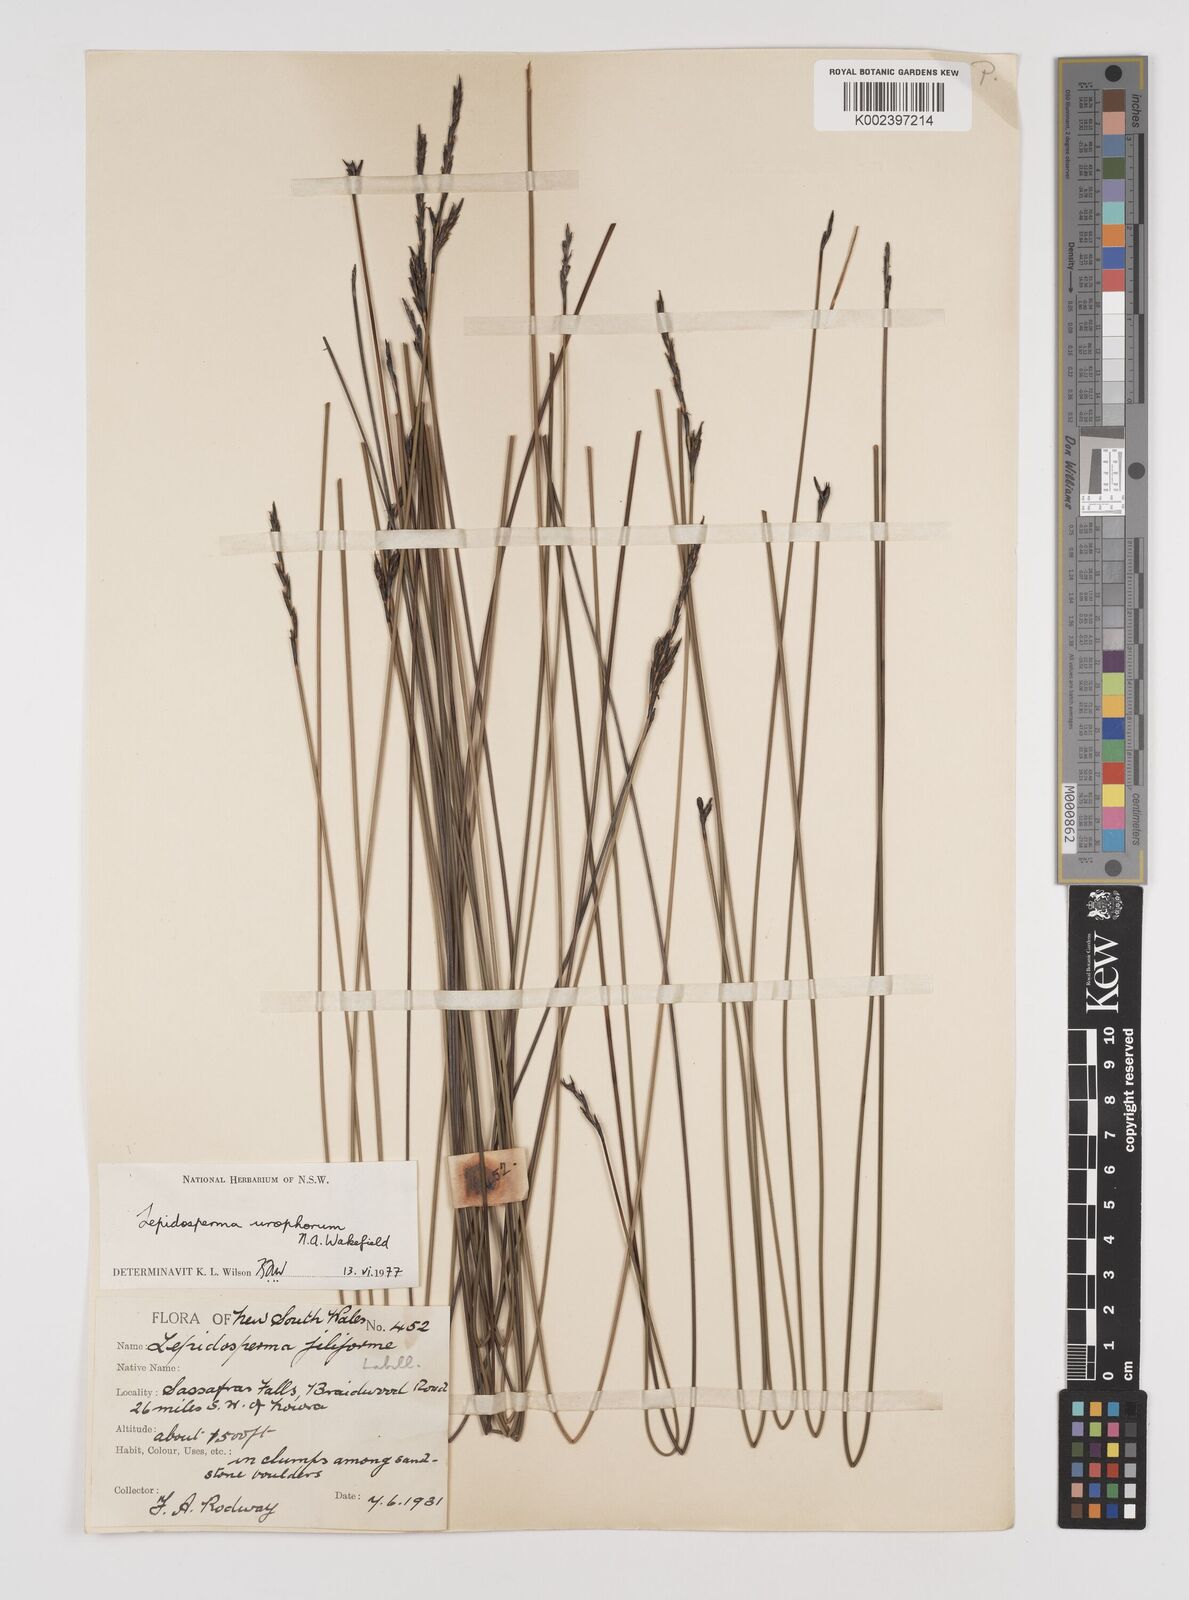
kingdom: Plantae
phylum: Tracheophyta
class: Liliopsida
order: Poales
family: Cyperaceae
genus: Lepidosperma
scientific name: Lepidosperma urophorum
